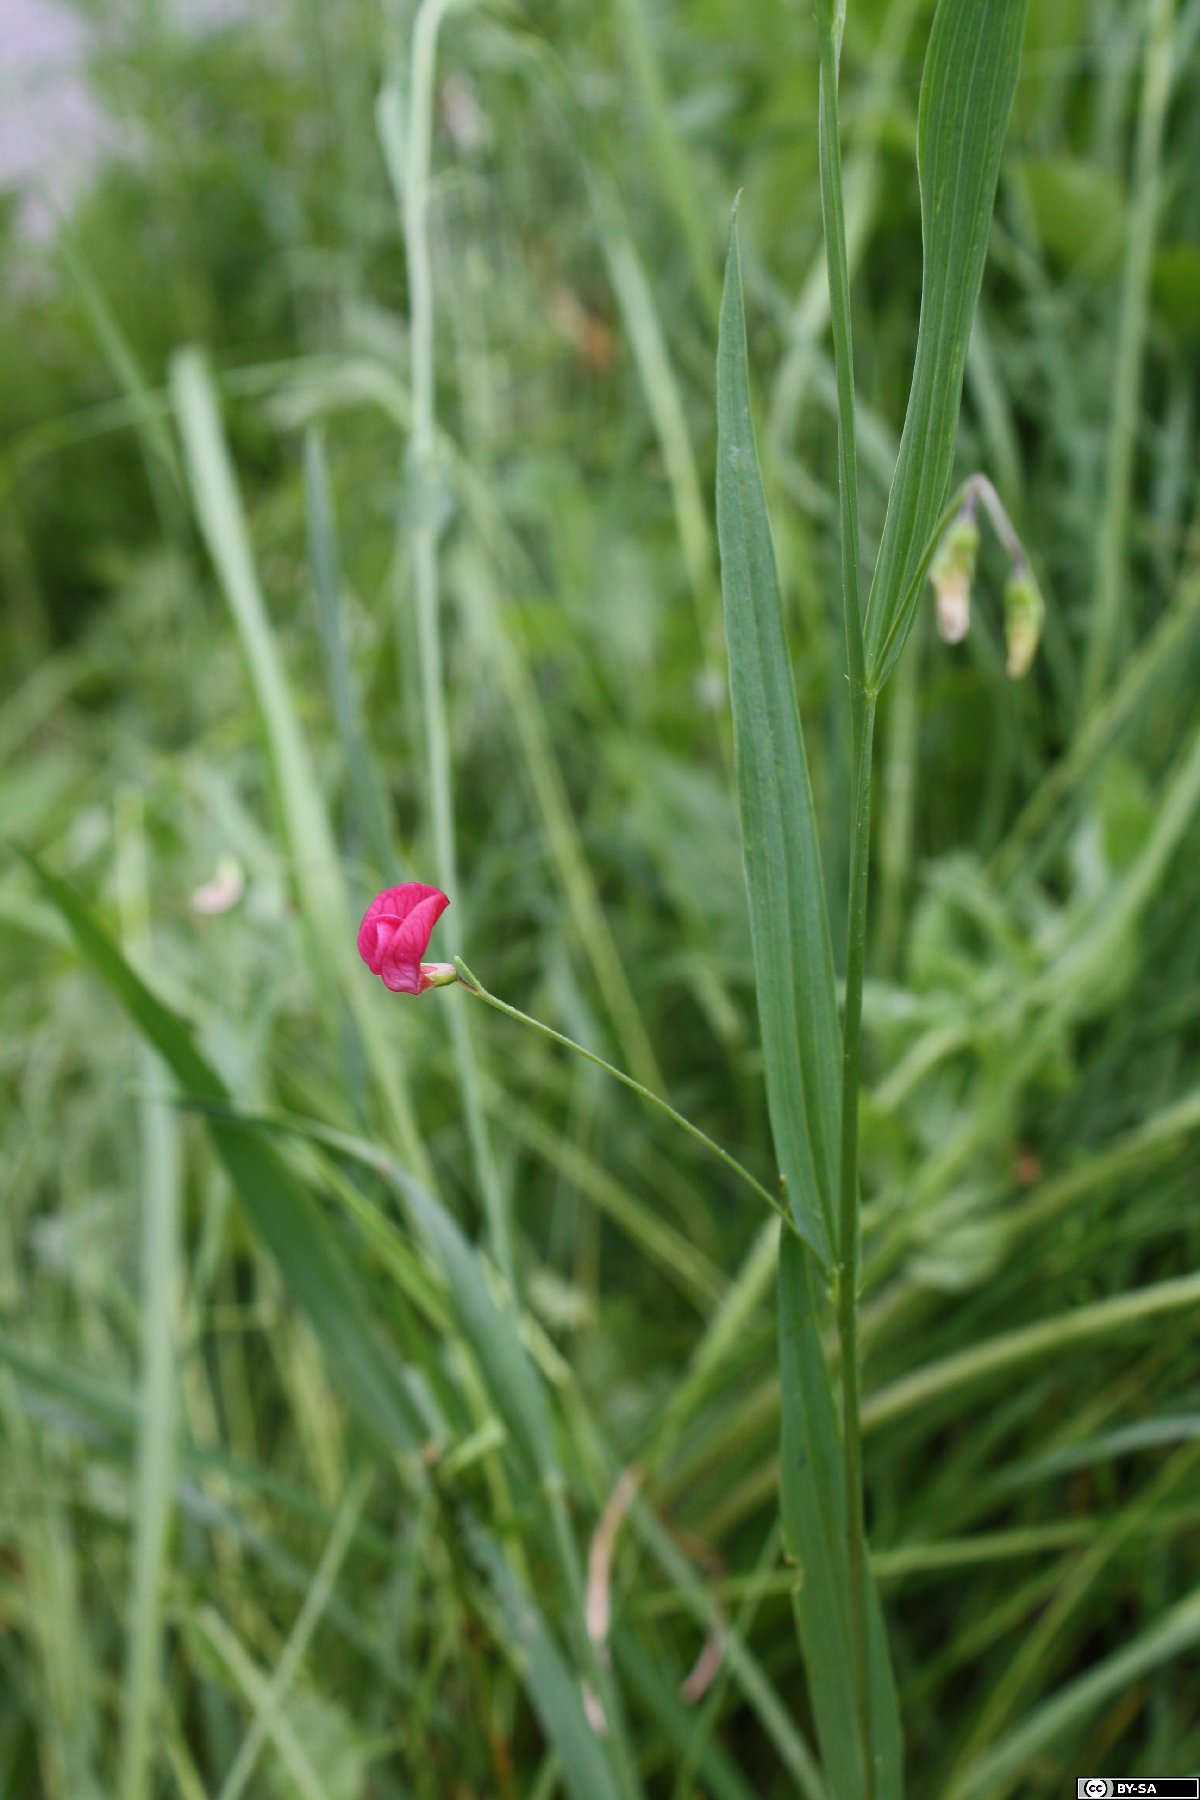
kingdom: Plantae
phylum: Tracheophyta
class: Magnoliopsida
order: Fabales
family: Fabaceae
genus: Lathyrus
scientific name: Lathyrus nissolia
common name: Grass vetchling
